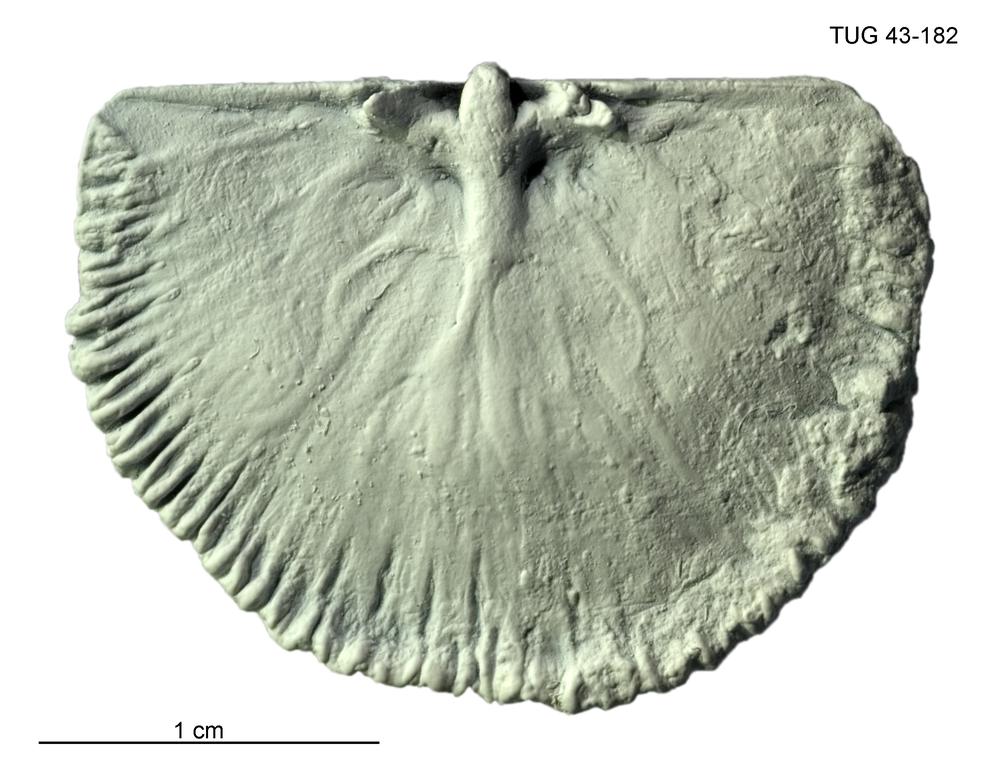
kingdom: Animalia
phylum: Brachiopoda
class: Rhynchonellata
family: Orthidae
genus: Cyrtonotella
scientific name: Cyrtonotella Orthis kuckersiana
